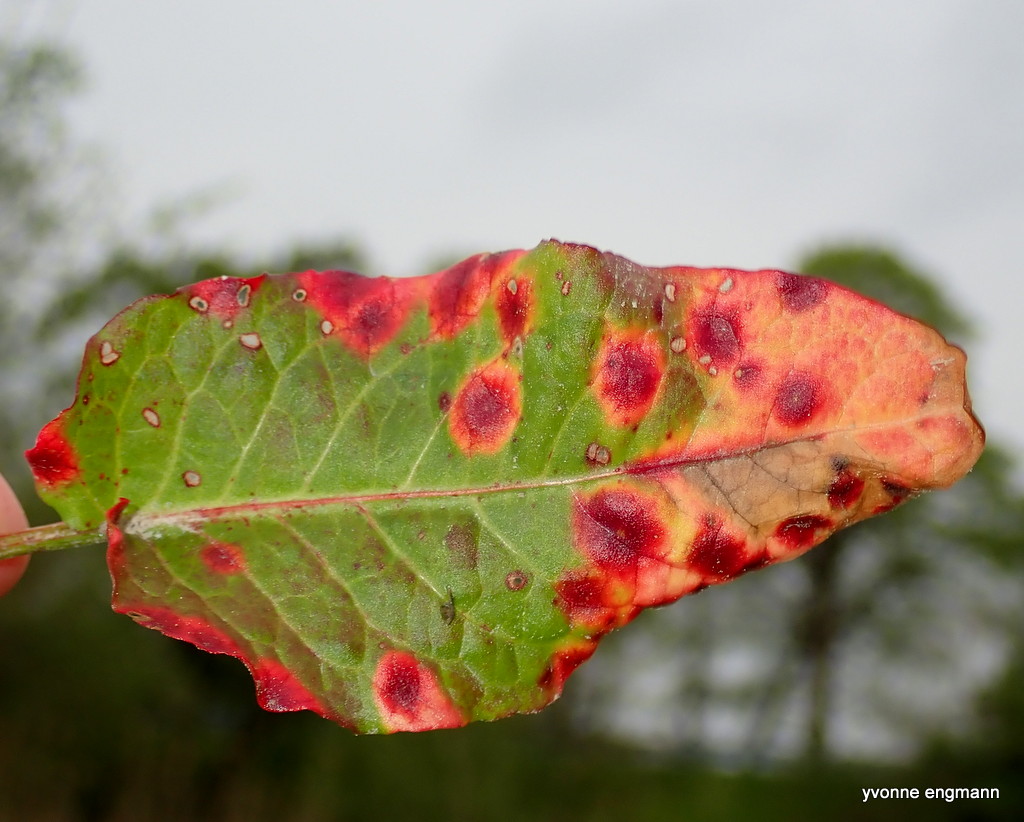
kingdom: Fungi
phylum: Basidiomycota
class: Pucciniomycetes
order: Pucciniales
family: Pucciniaceae
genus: Puccinia
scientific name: Puccinia phragmitis
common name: tagrør-tvecellerust
